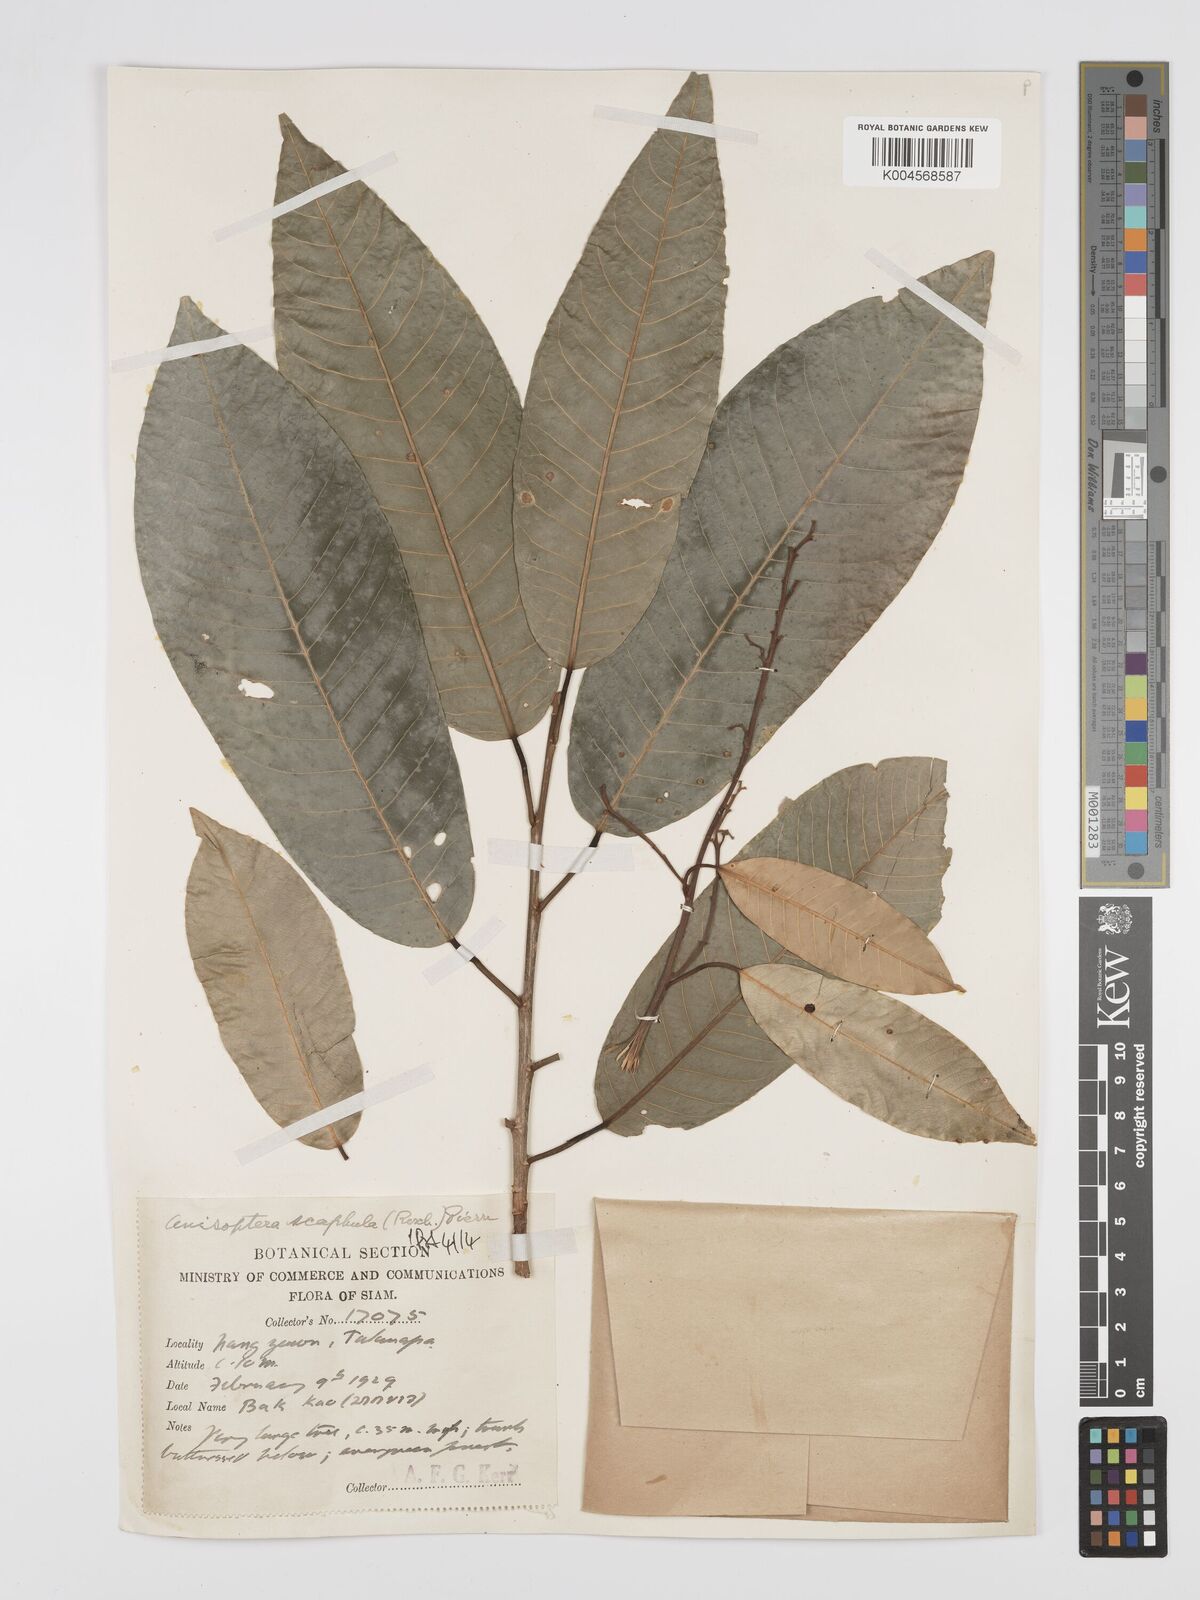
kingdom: Plantae
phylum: Tracheophyta
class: Magnoliopsida
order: Malvales
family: Dipterocarpaceae
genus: Anisoptera
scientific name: Anisoptera scaphula
